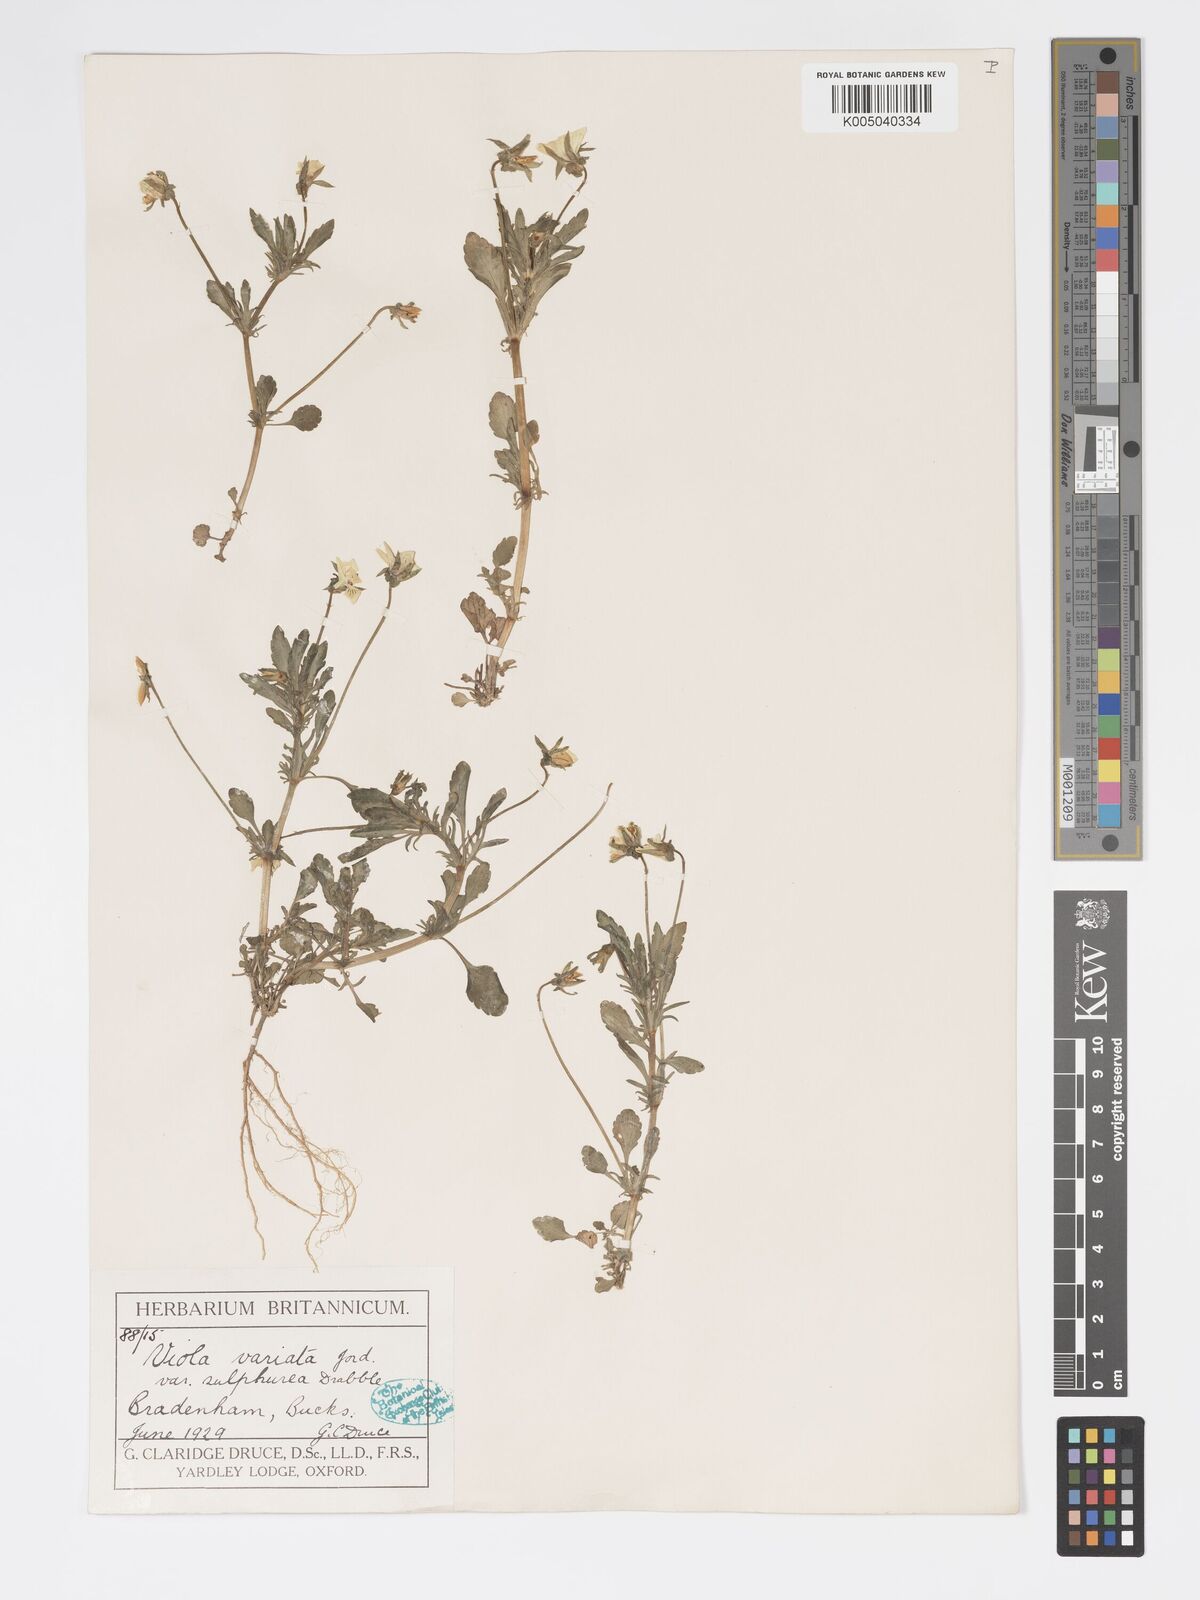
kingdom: Plantae
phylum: Tracheophyta
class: Magnoliopsida
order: Malpighiales
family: Violaceae
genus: Viola
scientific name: Viola arvensis
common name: Field pansy
